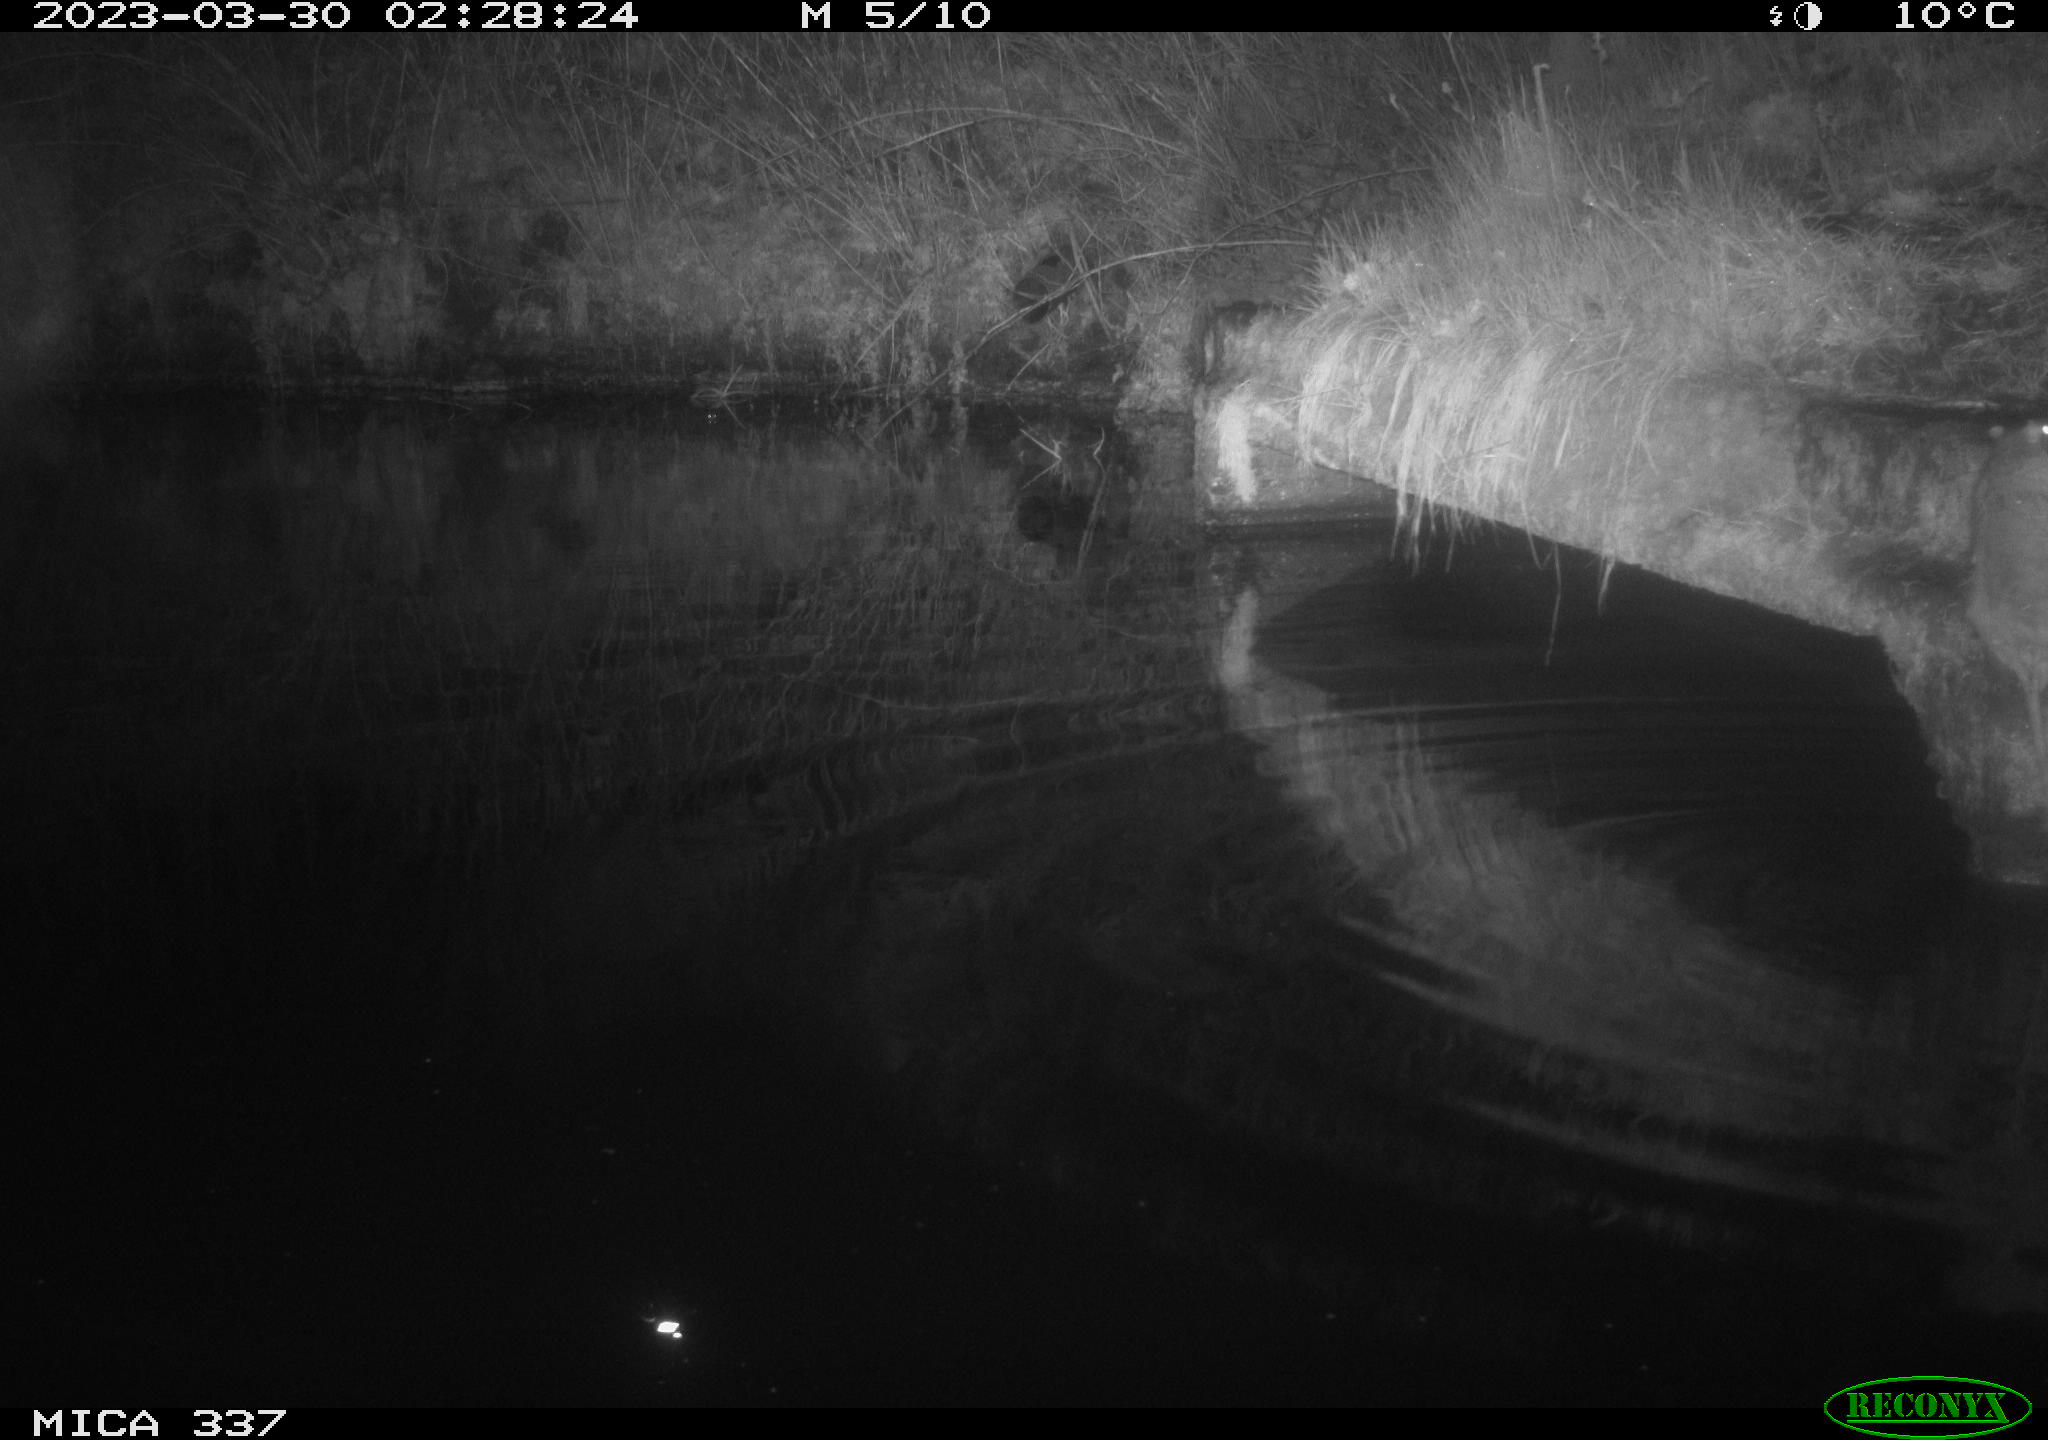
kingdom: Animalia
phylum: Chordata
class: Mammalia
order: Rodentia
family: Muridae
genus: Rattus
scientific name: Rattus norvegicus
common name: Brown rat
